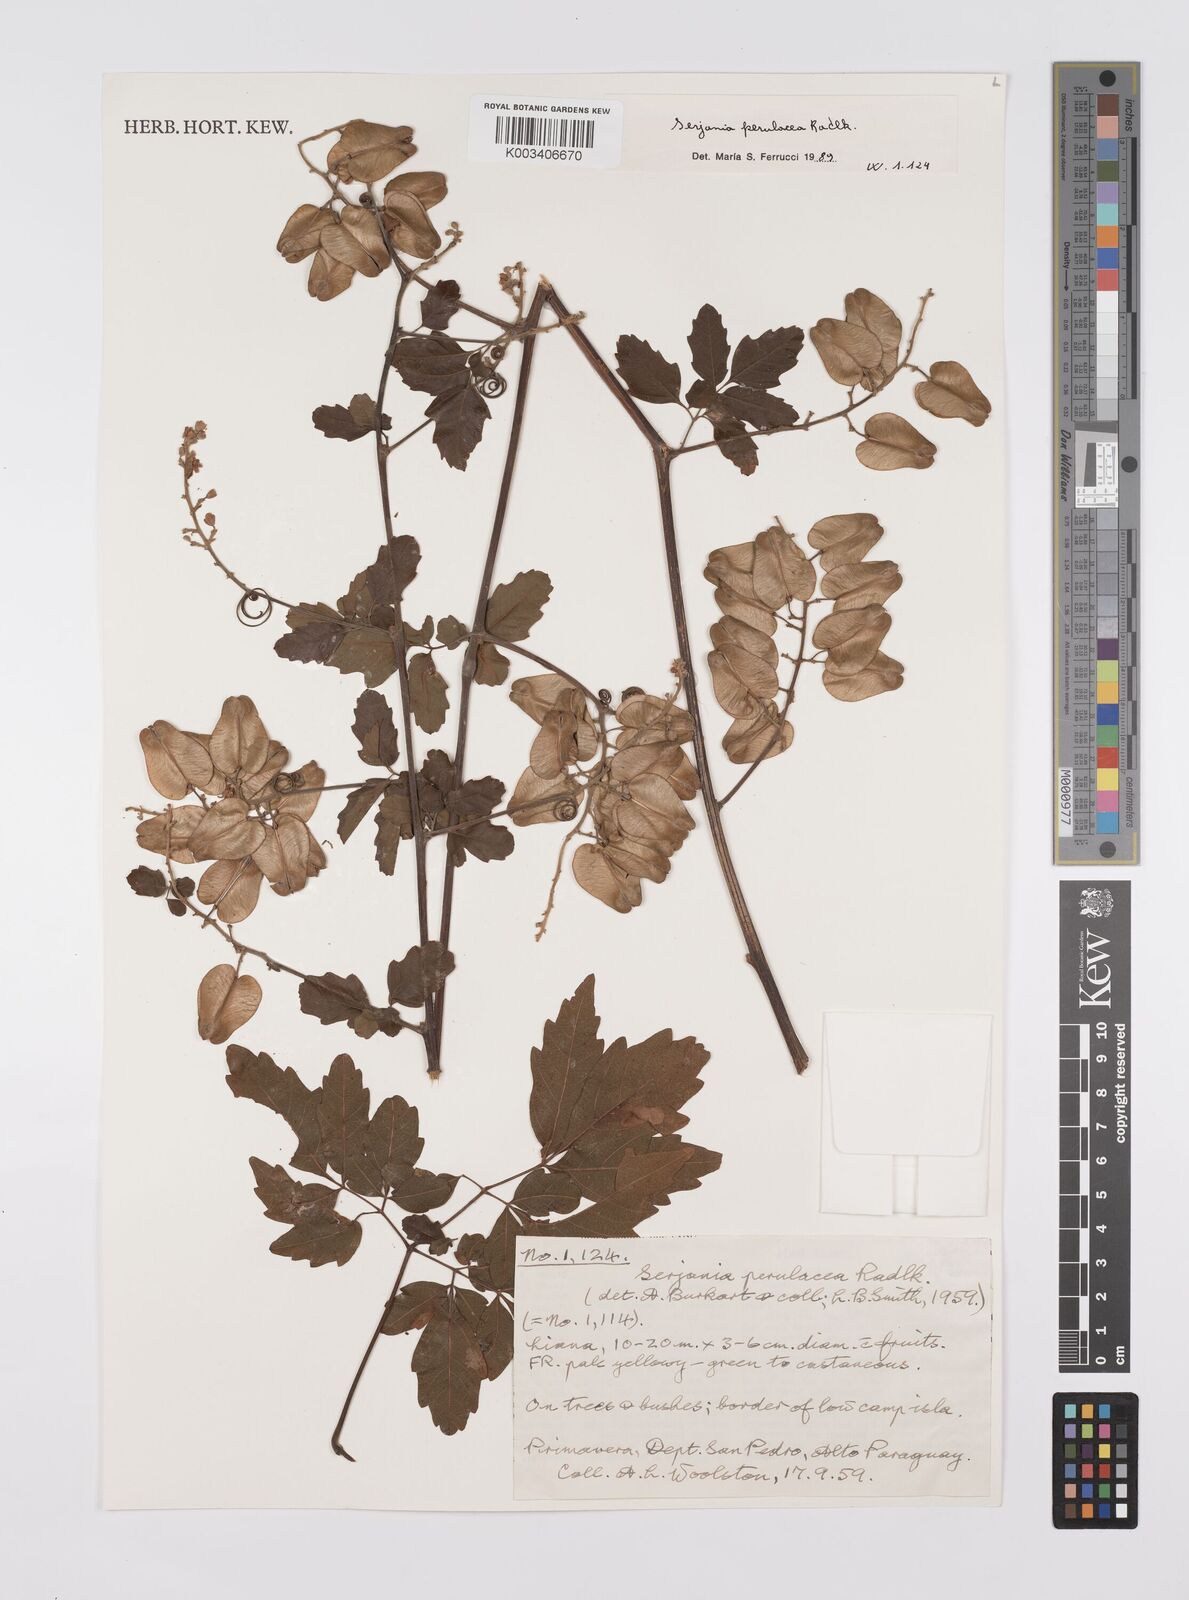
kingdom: Plantae
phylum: Tracheophyta
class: Magnoliopsida
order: Sapindales
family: Sapindaceae
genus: Serjania
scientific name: Serjania perulacea
